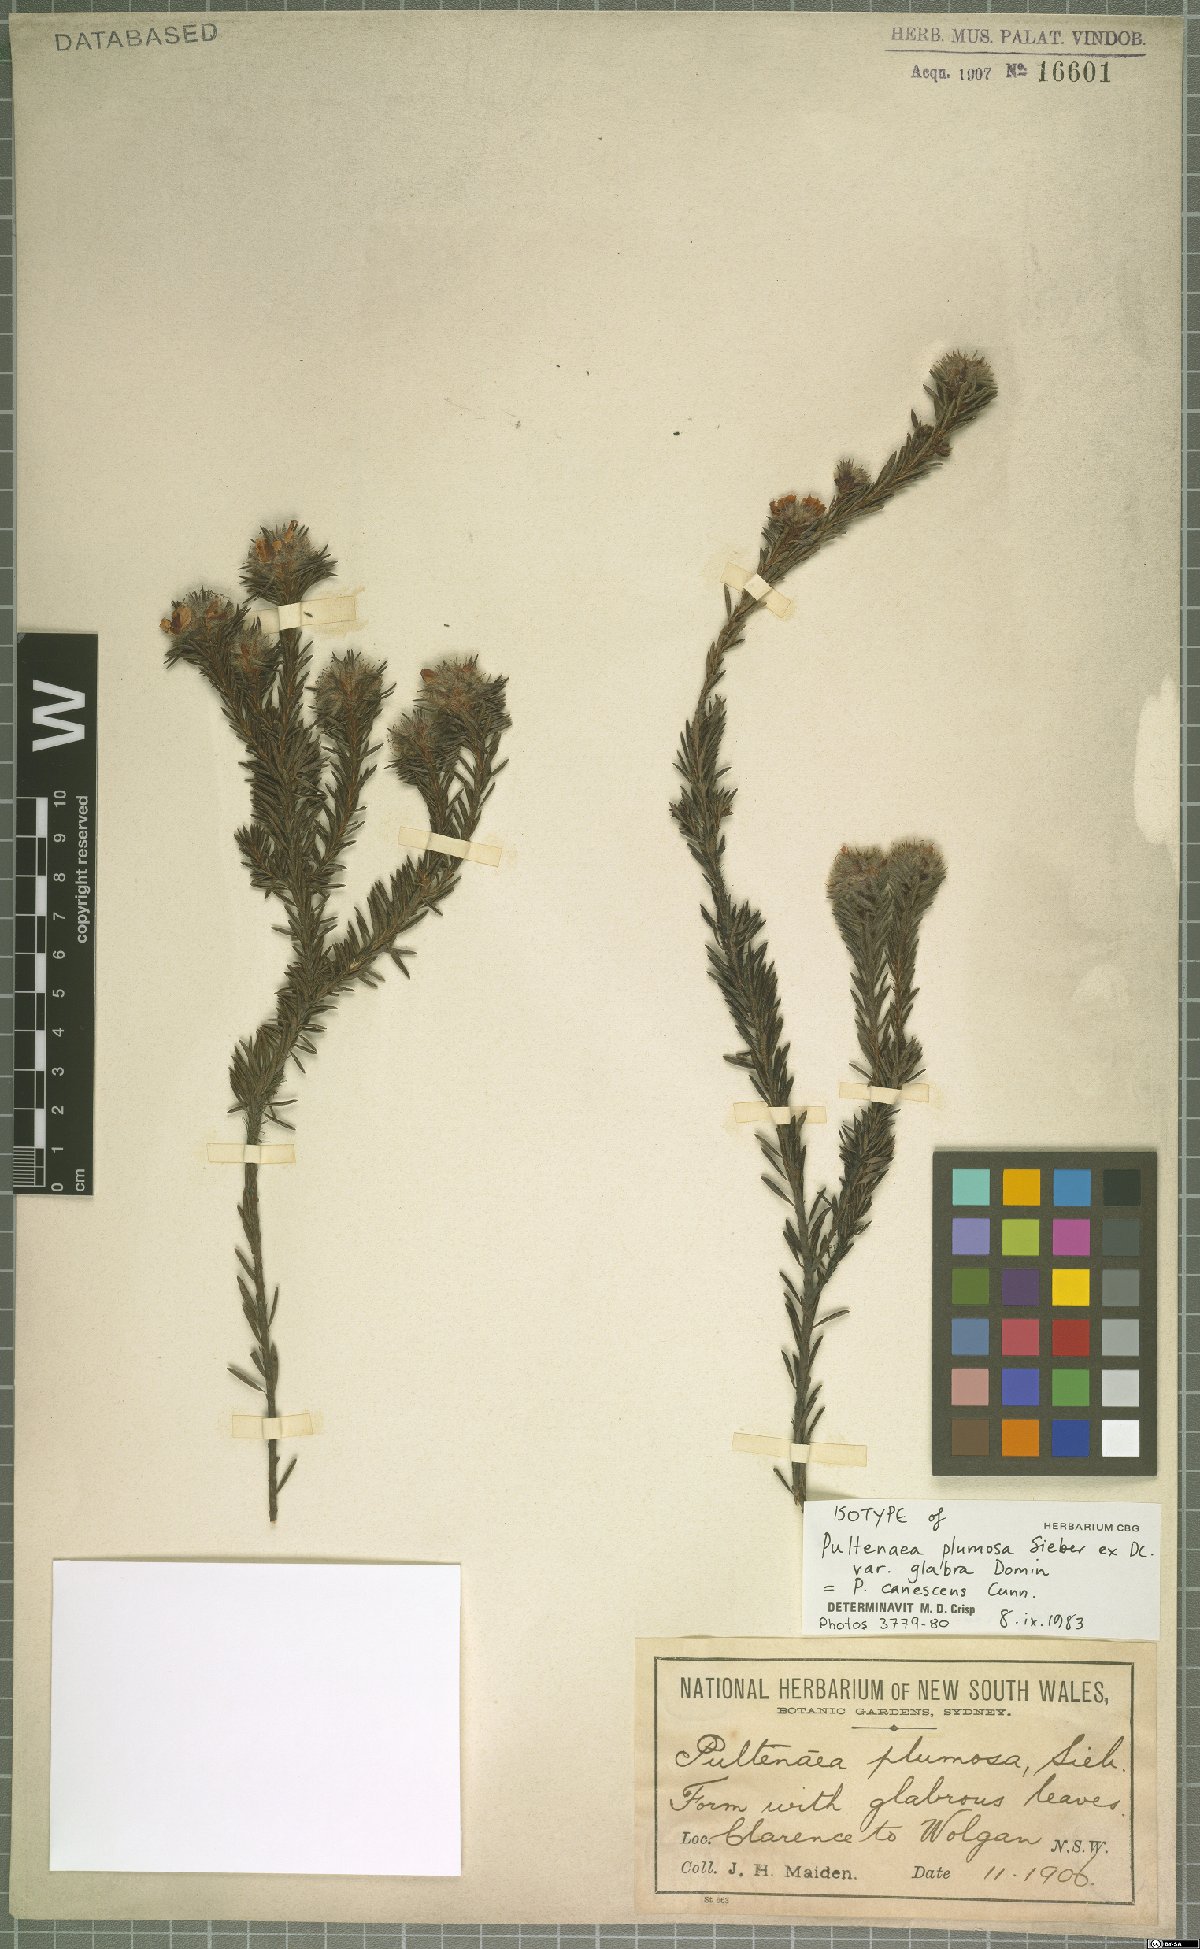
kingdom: Plantae
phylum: Tracheophyta
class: Magnoliopsida
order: Fabales
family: Fabaceae
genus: Pultenaea
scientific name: Pultenaea canescens
